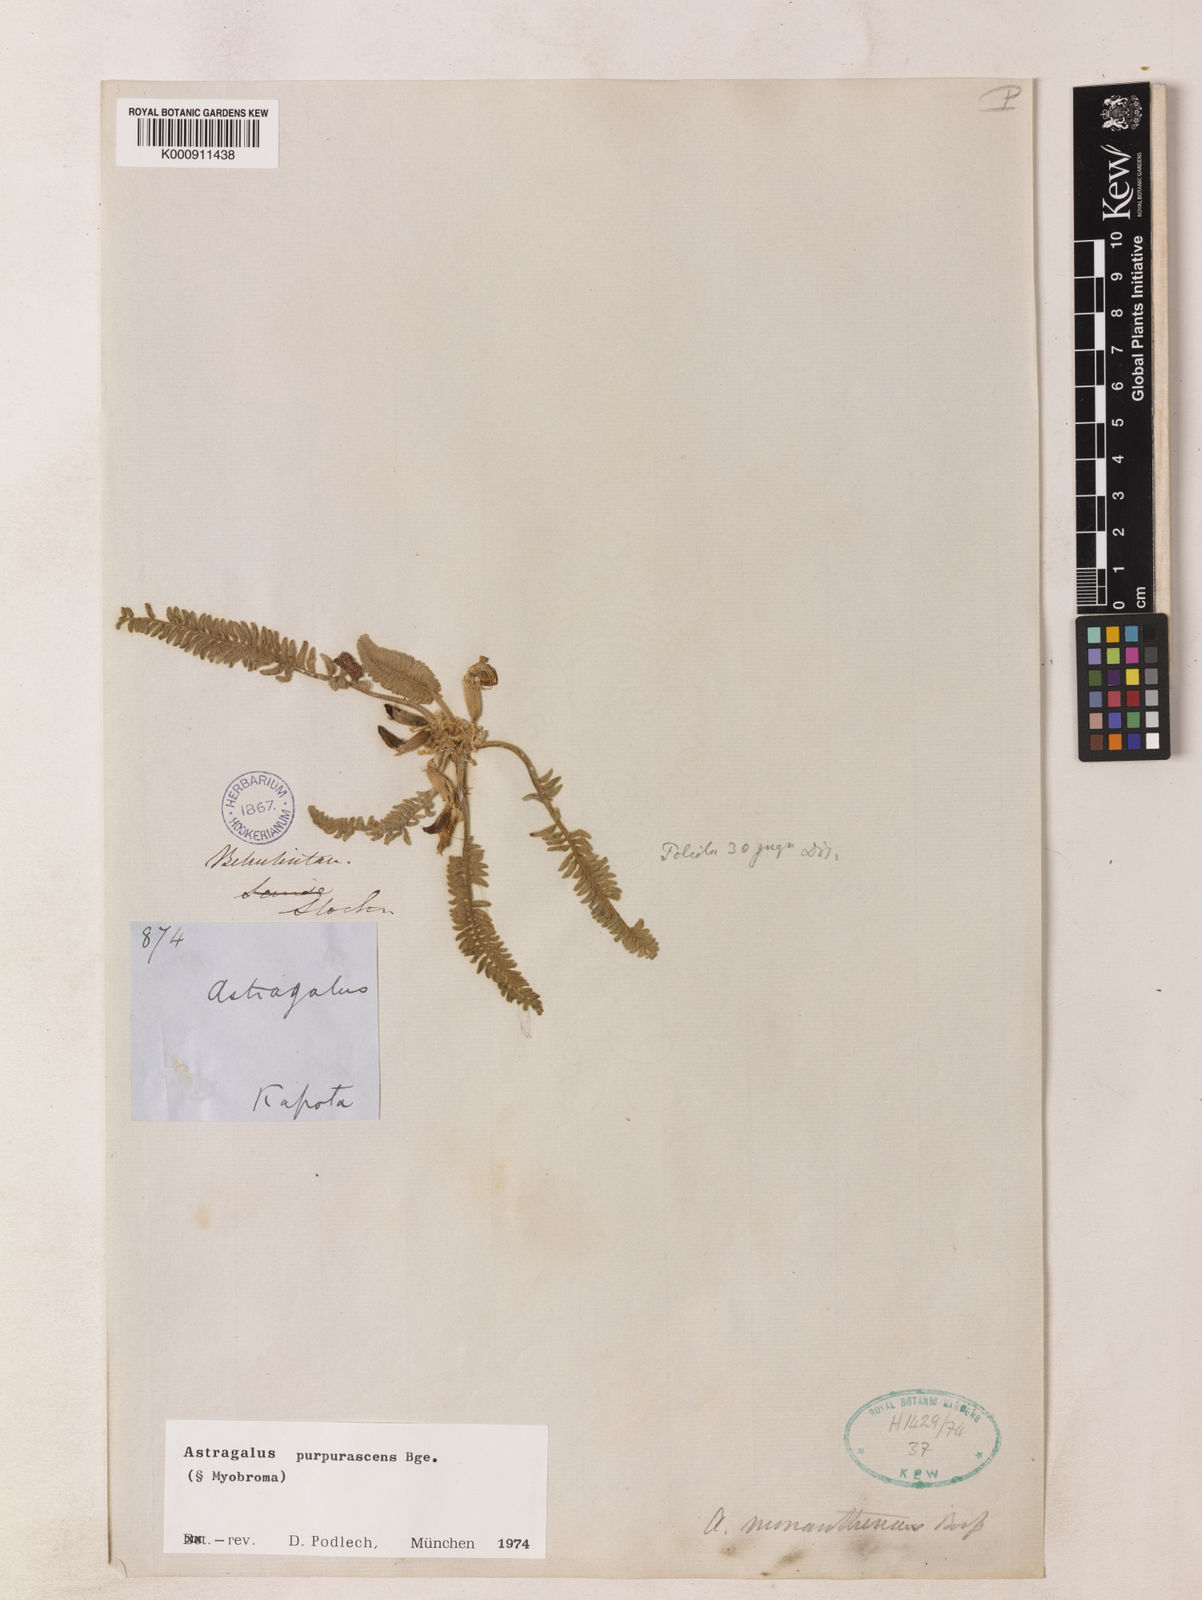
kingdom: Plantae
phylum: Tracheophyta
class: Magnoliopsida
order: Fabales
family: Fabaceae
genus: Astragalus
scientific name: Astragalus purpurascens
